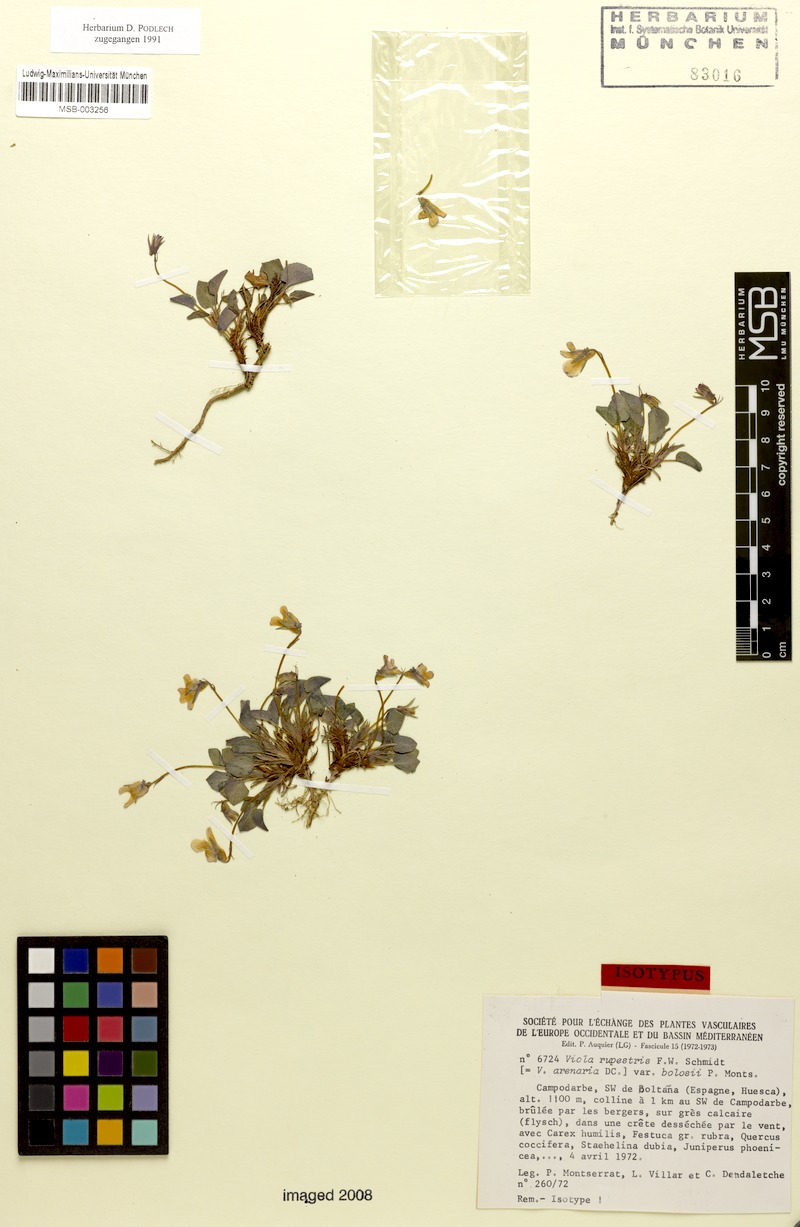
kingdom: Plantae
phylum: Tracheophyta
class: Magnoliopsida
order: Malpighiales
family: Violaceae
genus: Viola
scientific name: Viola rupestris
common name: Teesdale violet
